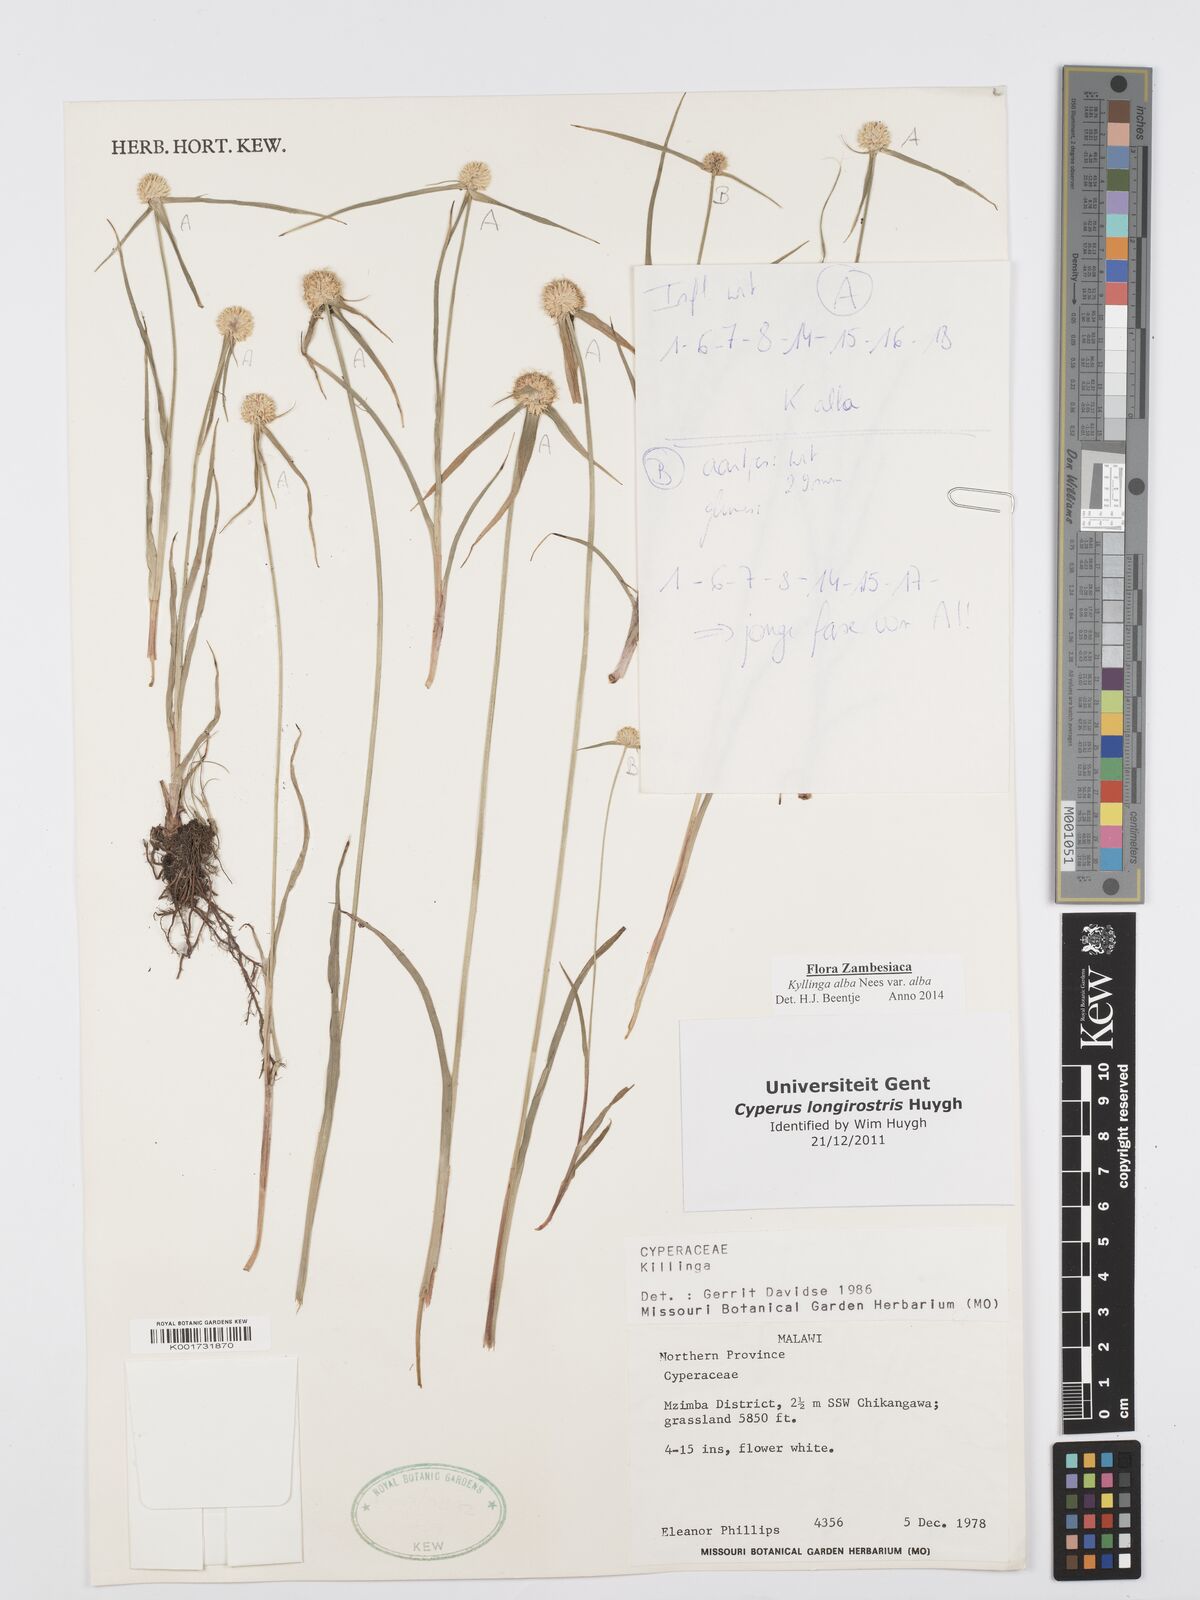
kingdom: Plantae
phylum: Tracheophyta
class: Liliopsida
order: Poales
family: Cyperaceae
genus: Cyperus
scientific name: Cyperus rukwanus
